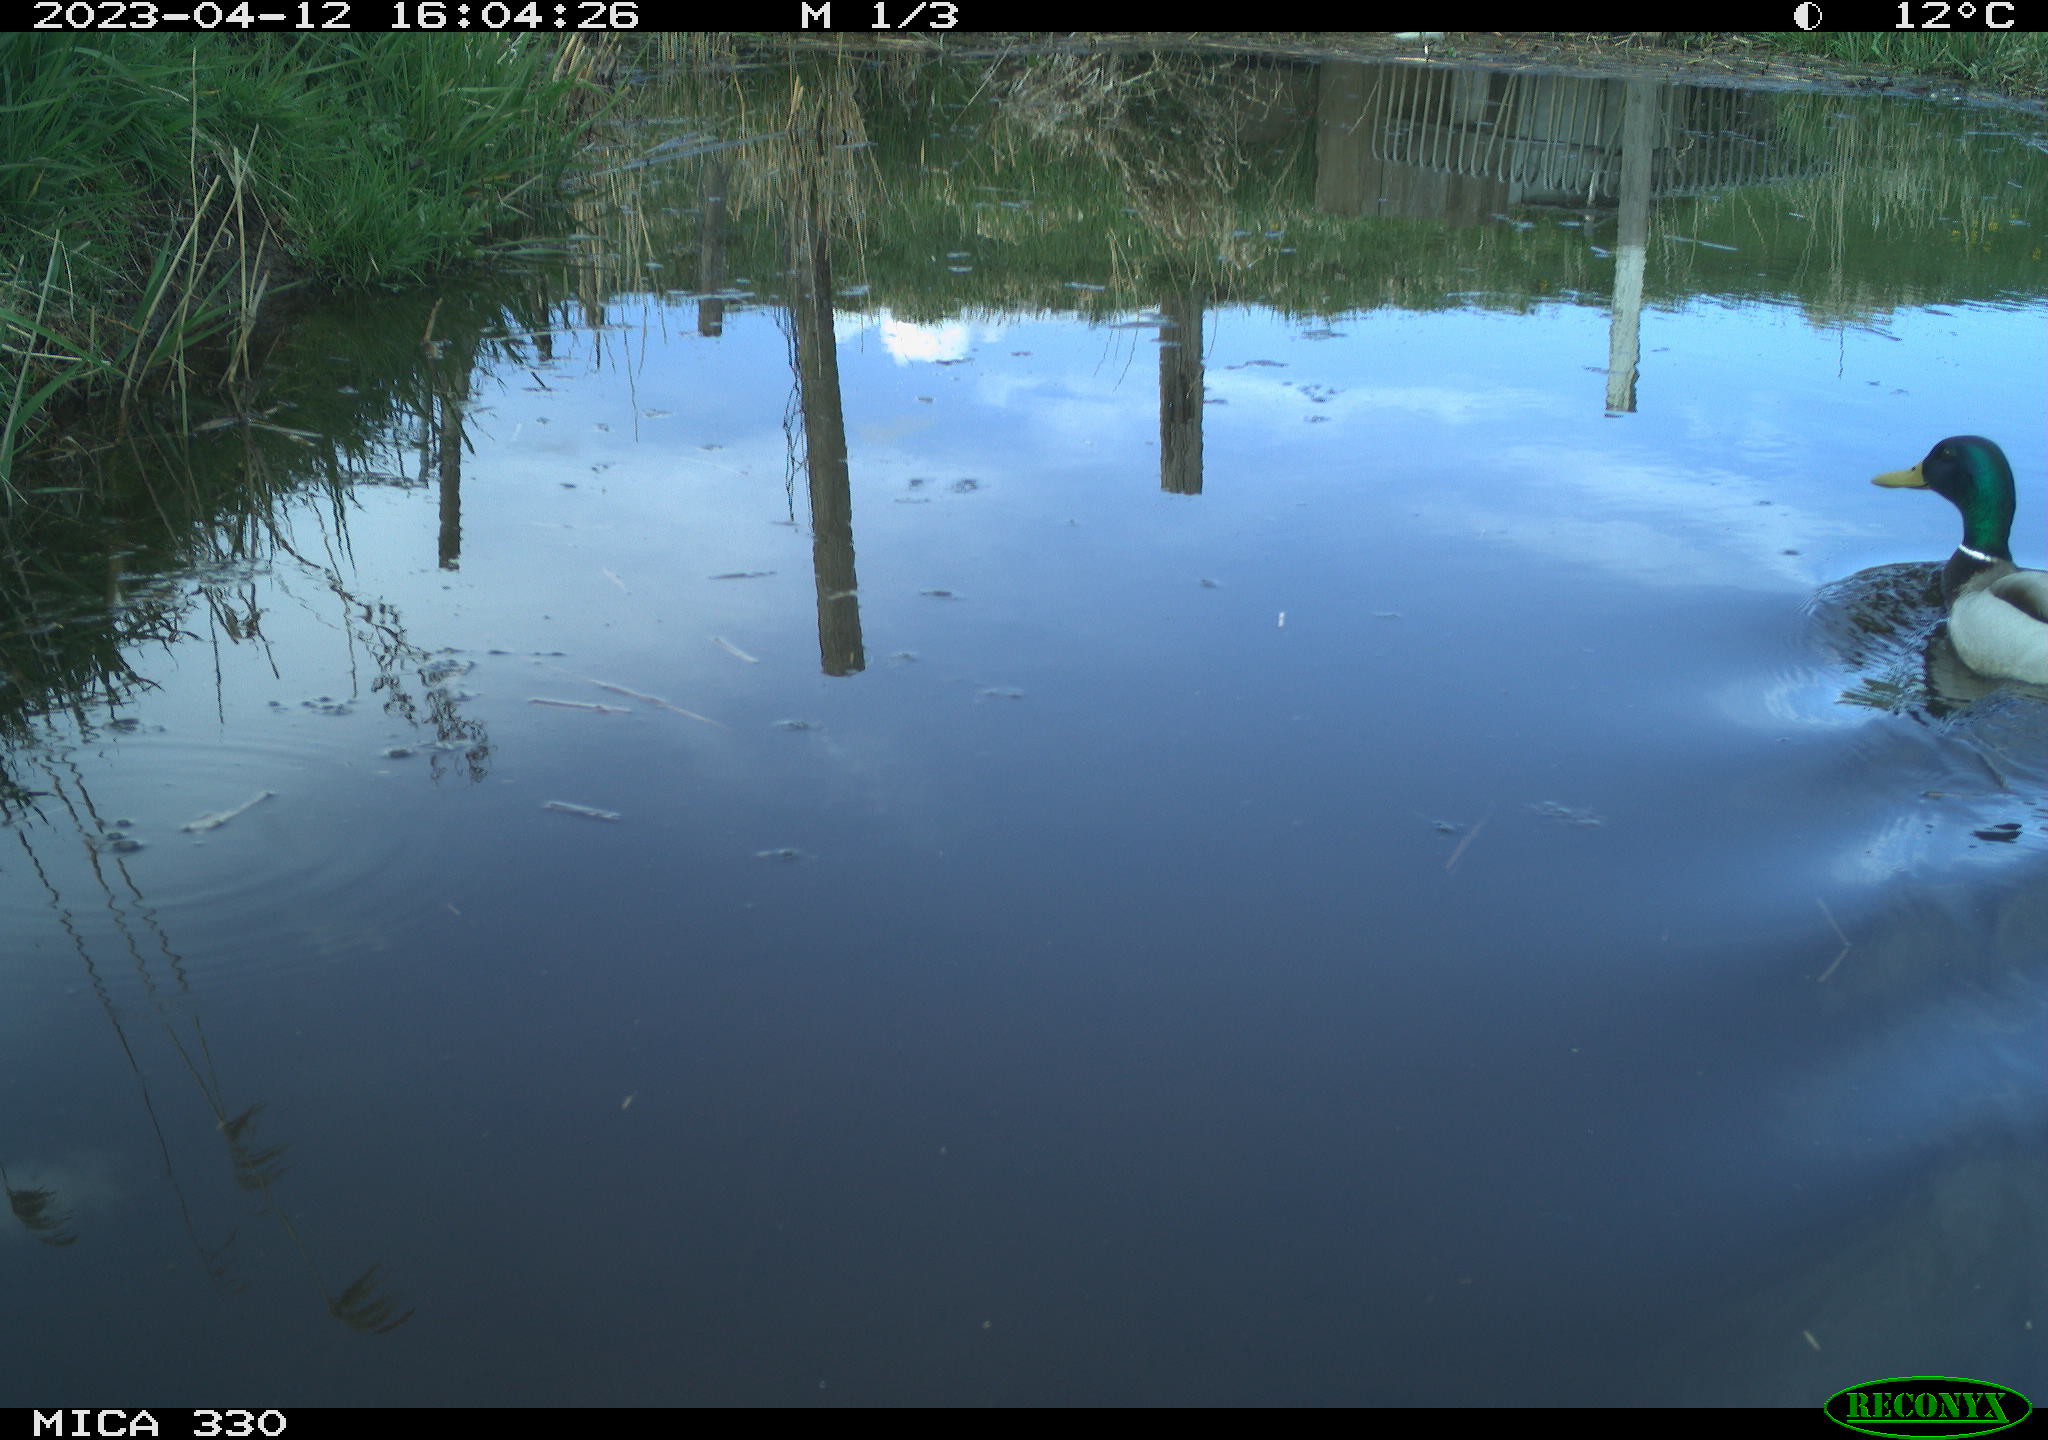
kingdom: Animalia
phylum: Chordata
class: Aves
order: Anseriformes
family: Anatidae
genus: Anas
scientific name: Anas
